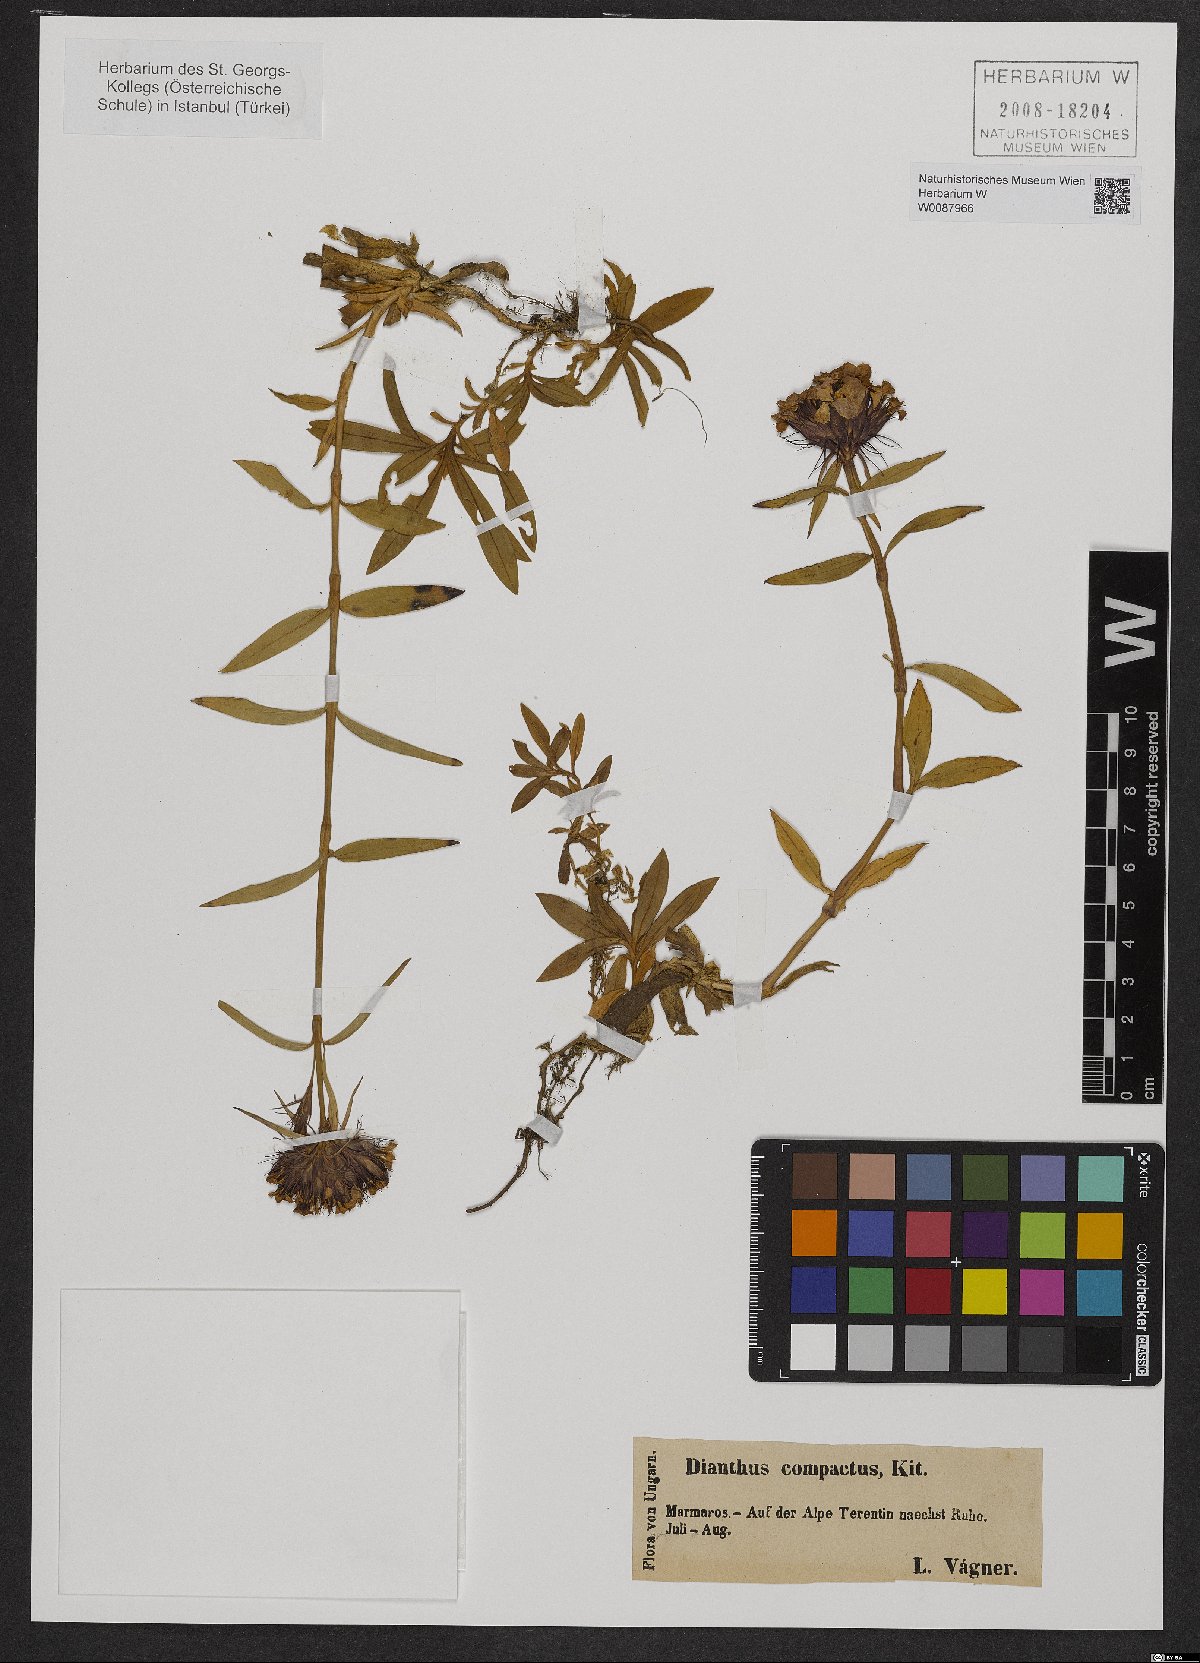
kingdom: Plantae
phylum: Tracheophyta
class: Magnoliopsida
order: Caryophyllales
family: Caryophyllaceae
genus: Dianthus
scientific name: Dianthus barbatus
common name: Sweet-william
